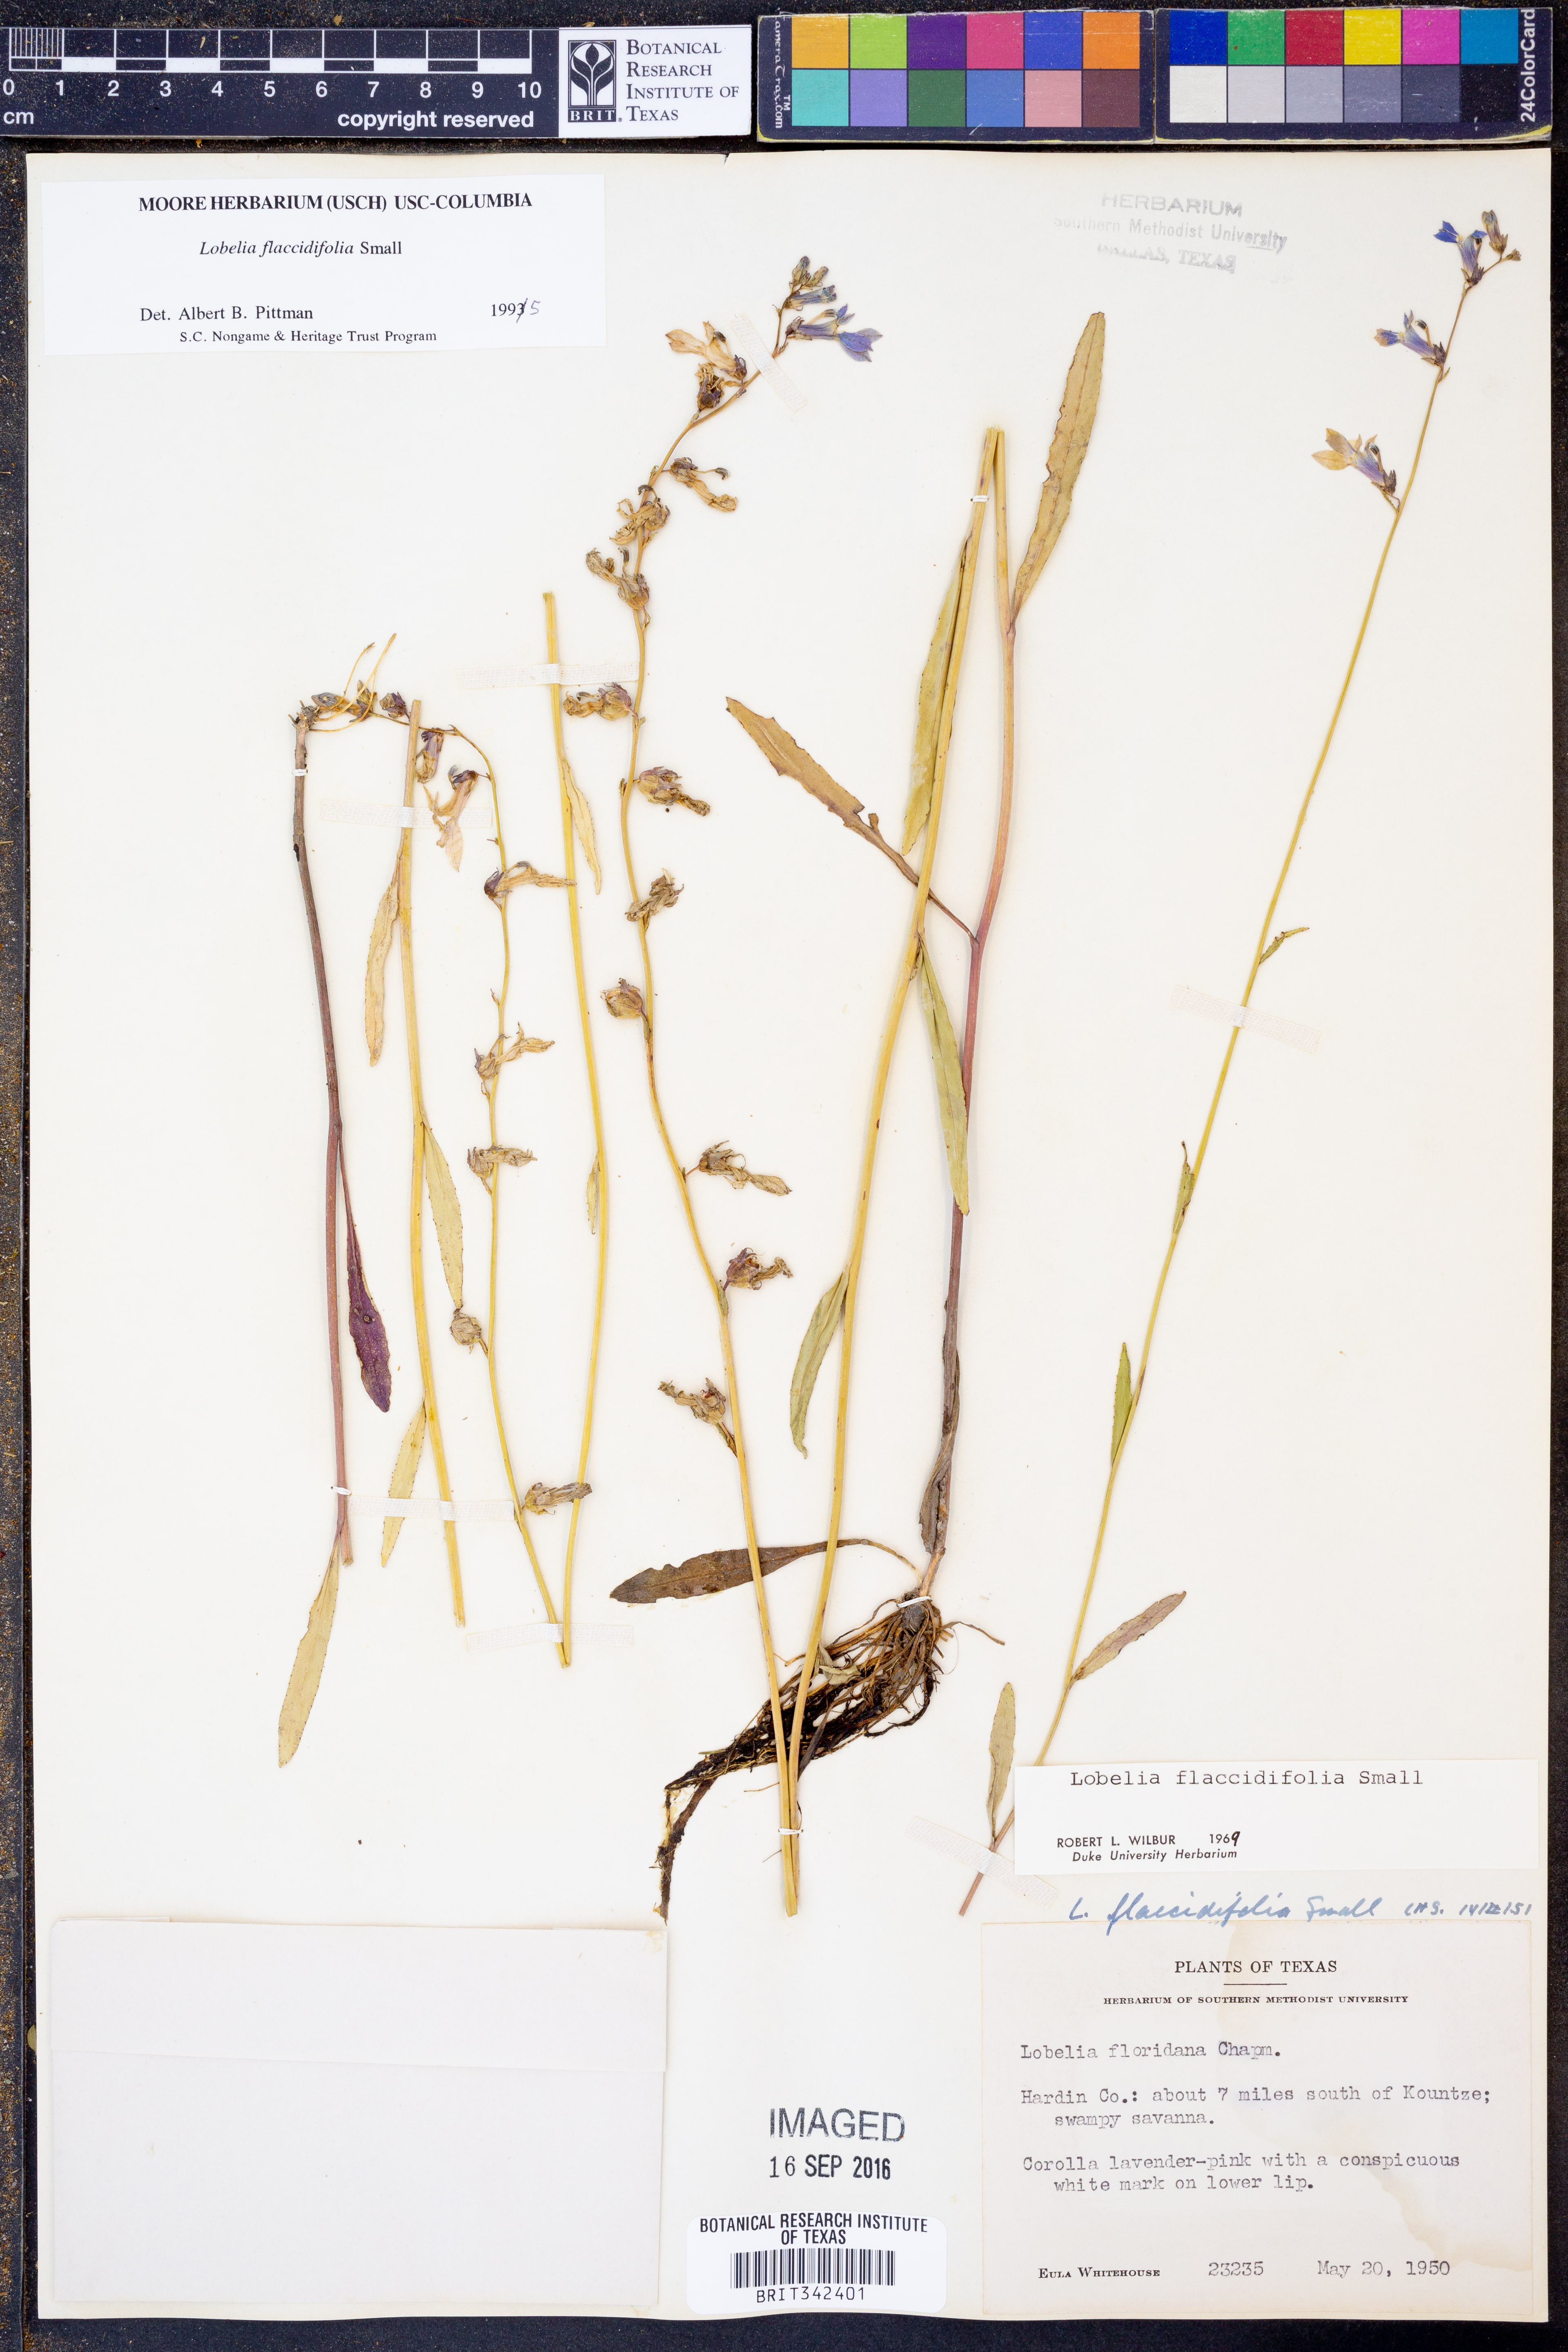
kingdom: Plantae
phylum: Tracheophyta
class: Magnoliopsida
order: Asterales
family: Campanulaceae
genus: Lobelia
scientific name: Lobelia flaccidifolia
